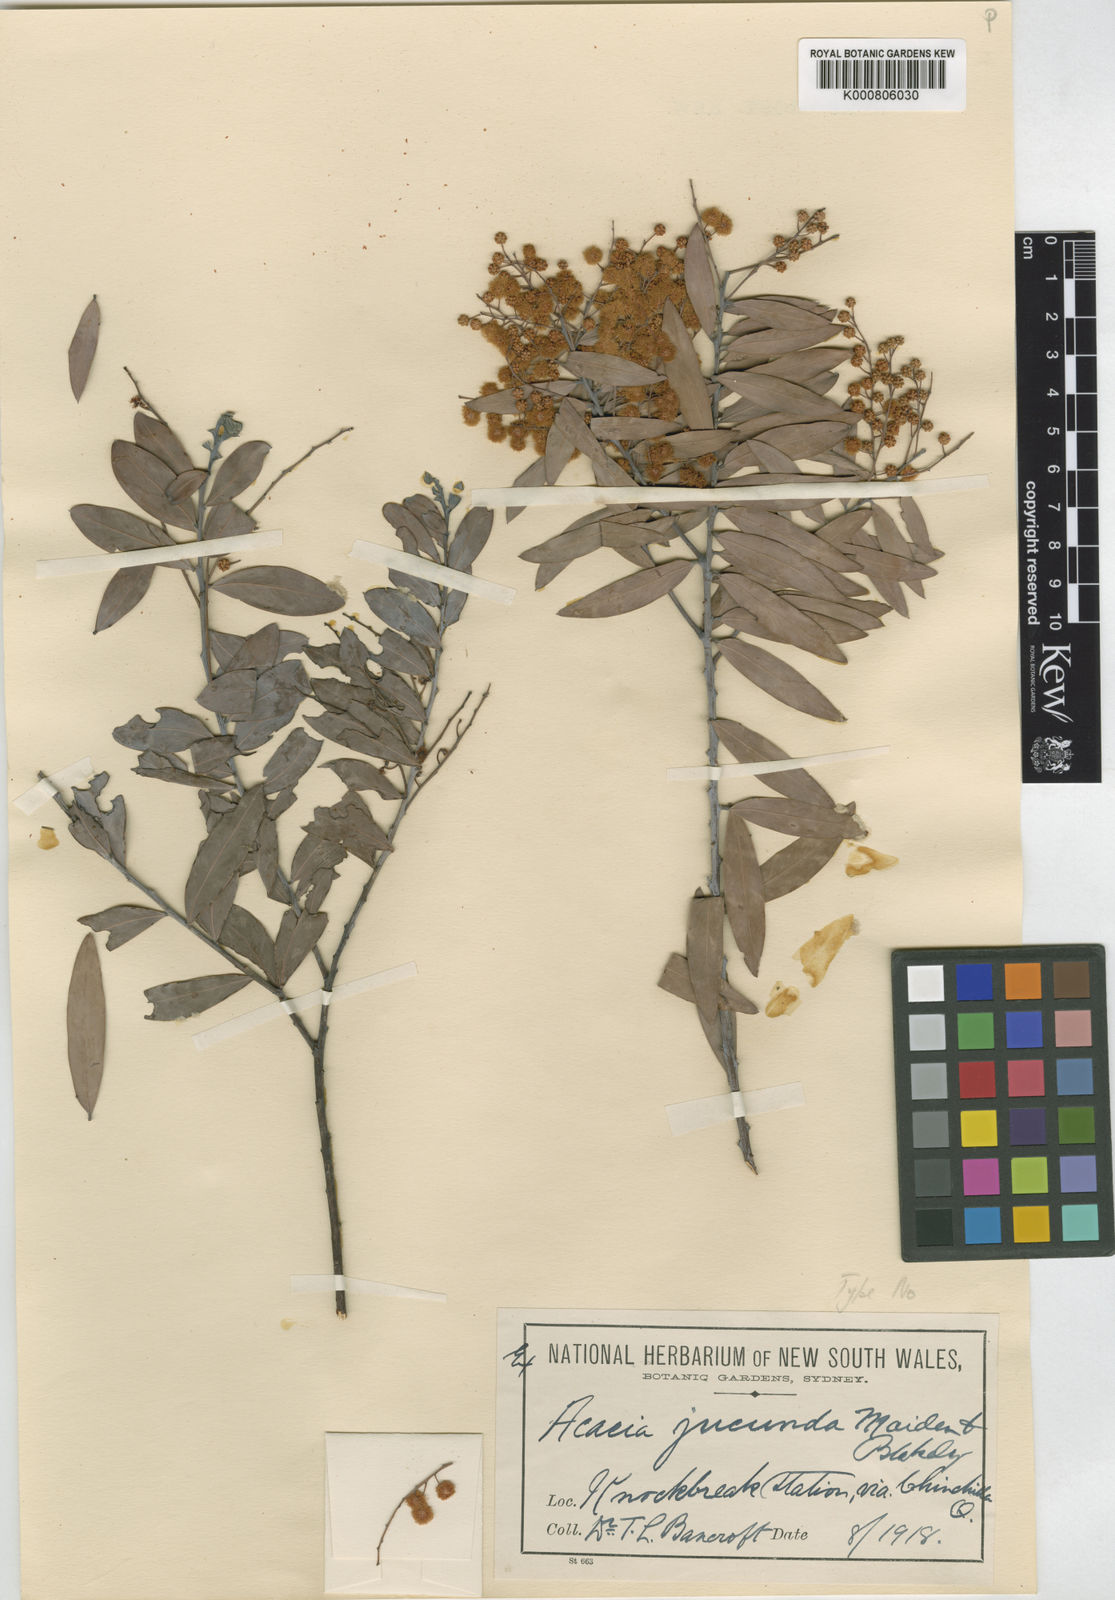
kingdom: Plantae
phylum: Tracheophyta
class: Magnoliopsida
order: Fabales
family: Fabaceae
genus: Acacia
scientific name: Acacia jucunda
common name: Yetman wattle
